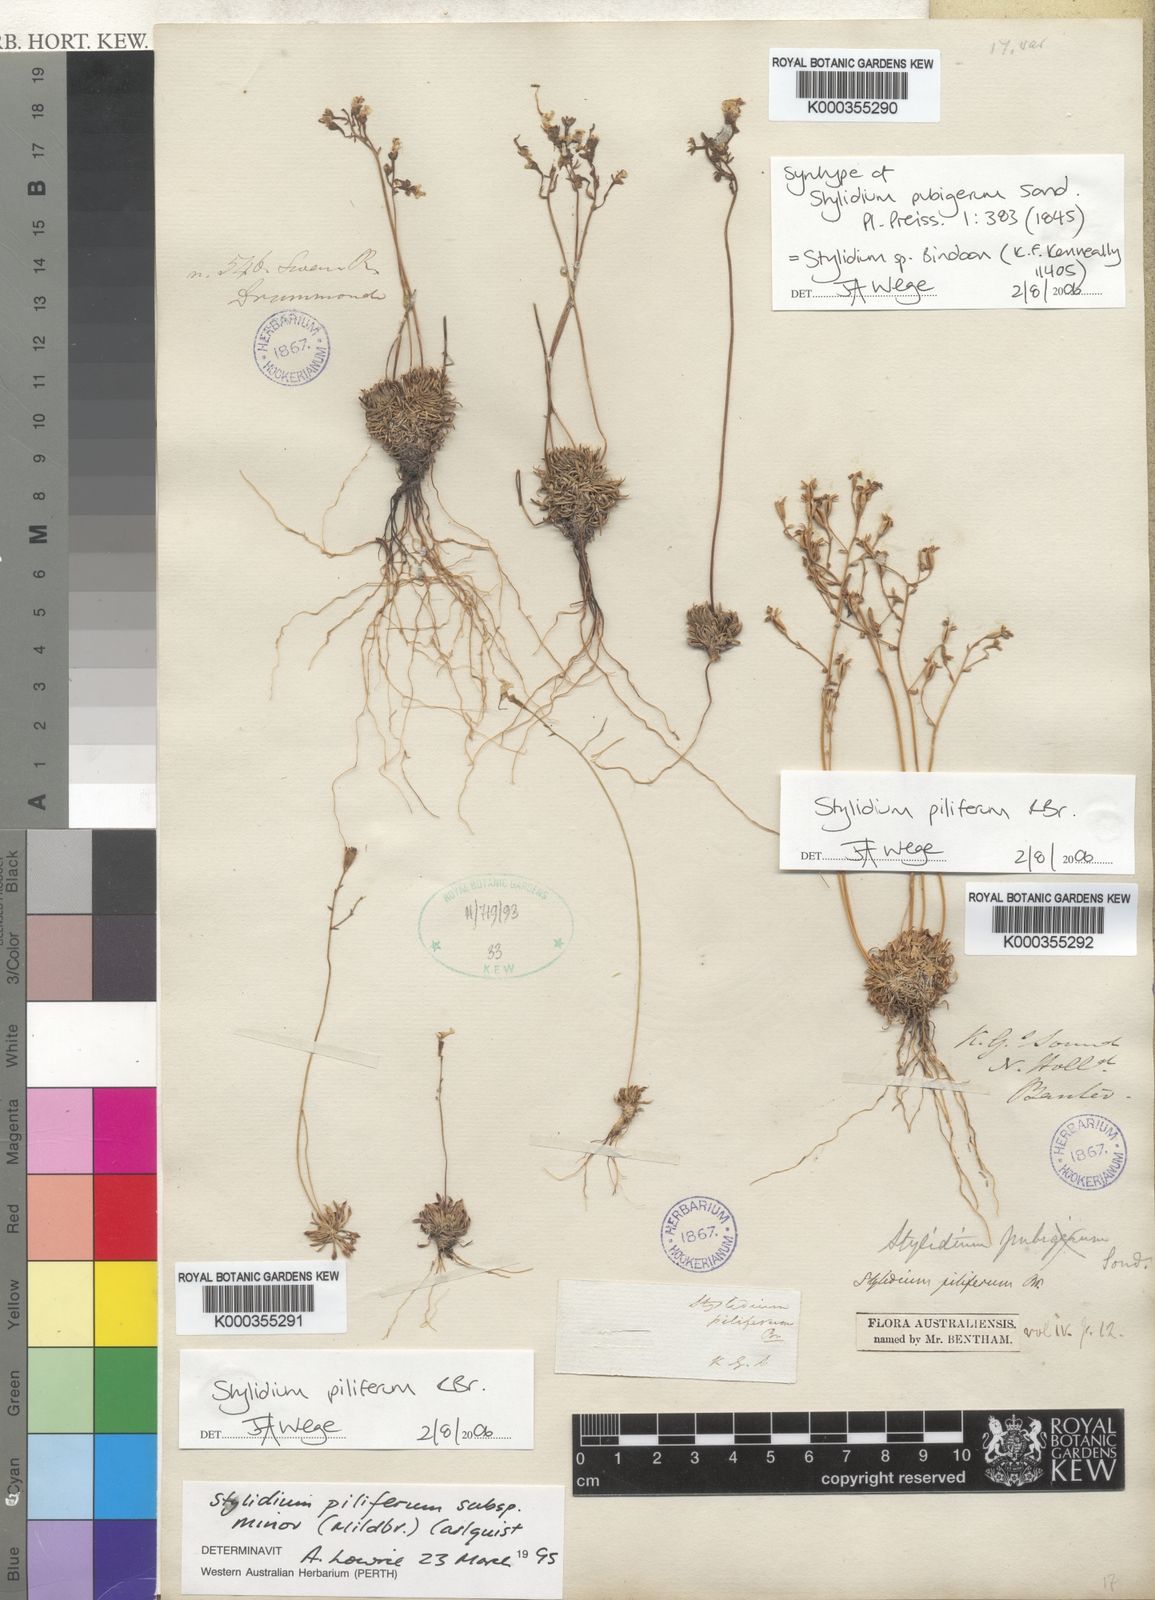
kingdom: Plantae
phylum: Tracheophyta
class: Magnoliopsida
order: Asterales
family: Stylidiaceae
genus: Stylidium
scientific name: Stylidium pubigerum
